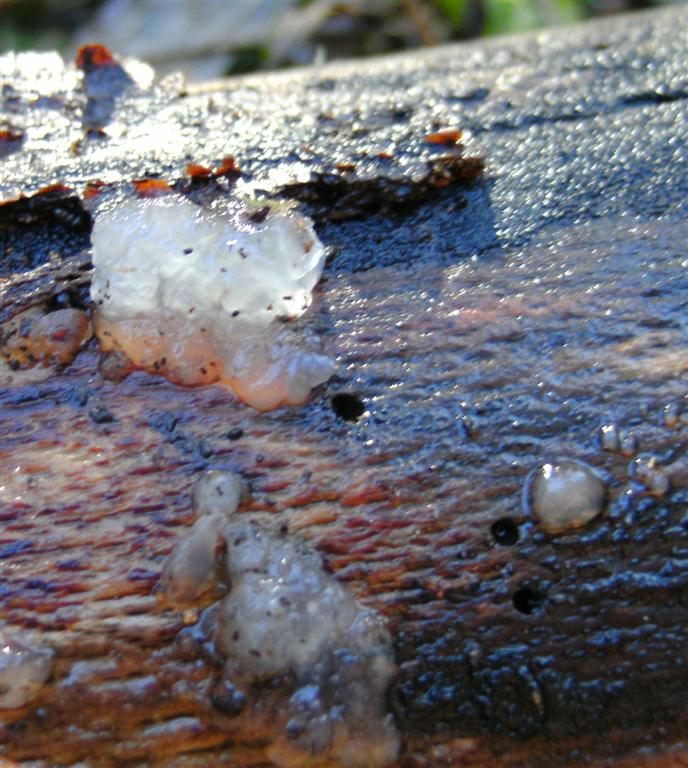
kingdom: Fungi
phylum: Basidiomycota
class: Agaricomycetes
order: Auriculariales
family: Hyaloriaceae
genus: Myxarium
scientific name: Myxarium nucleatum
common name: klar bævretop
